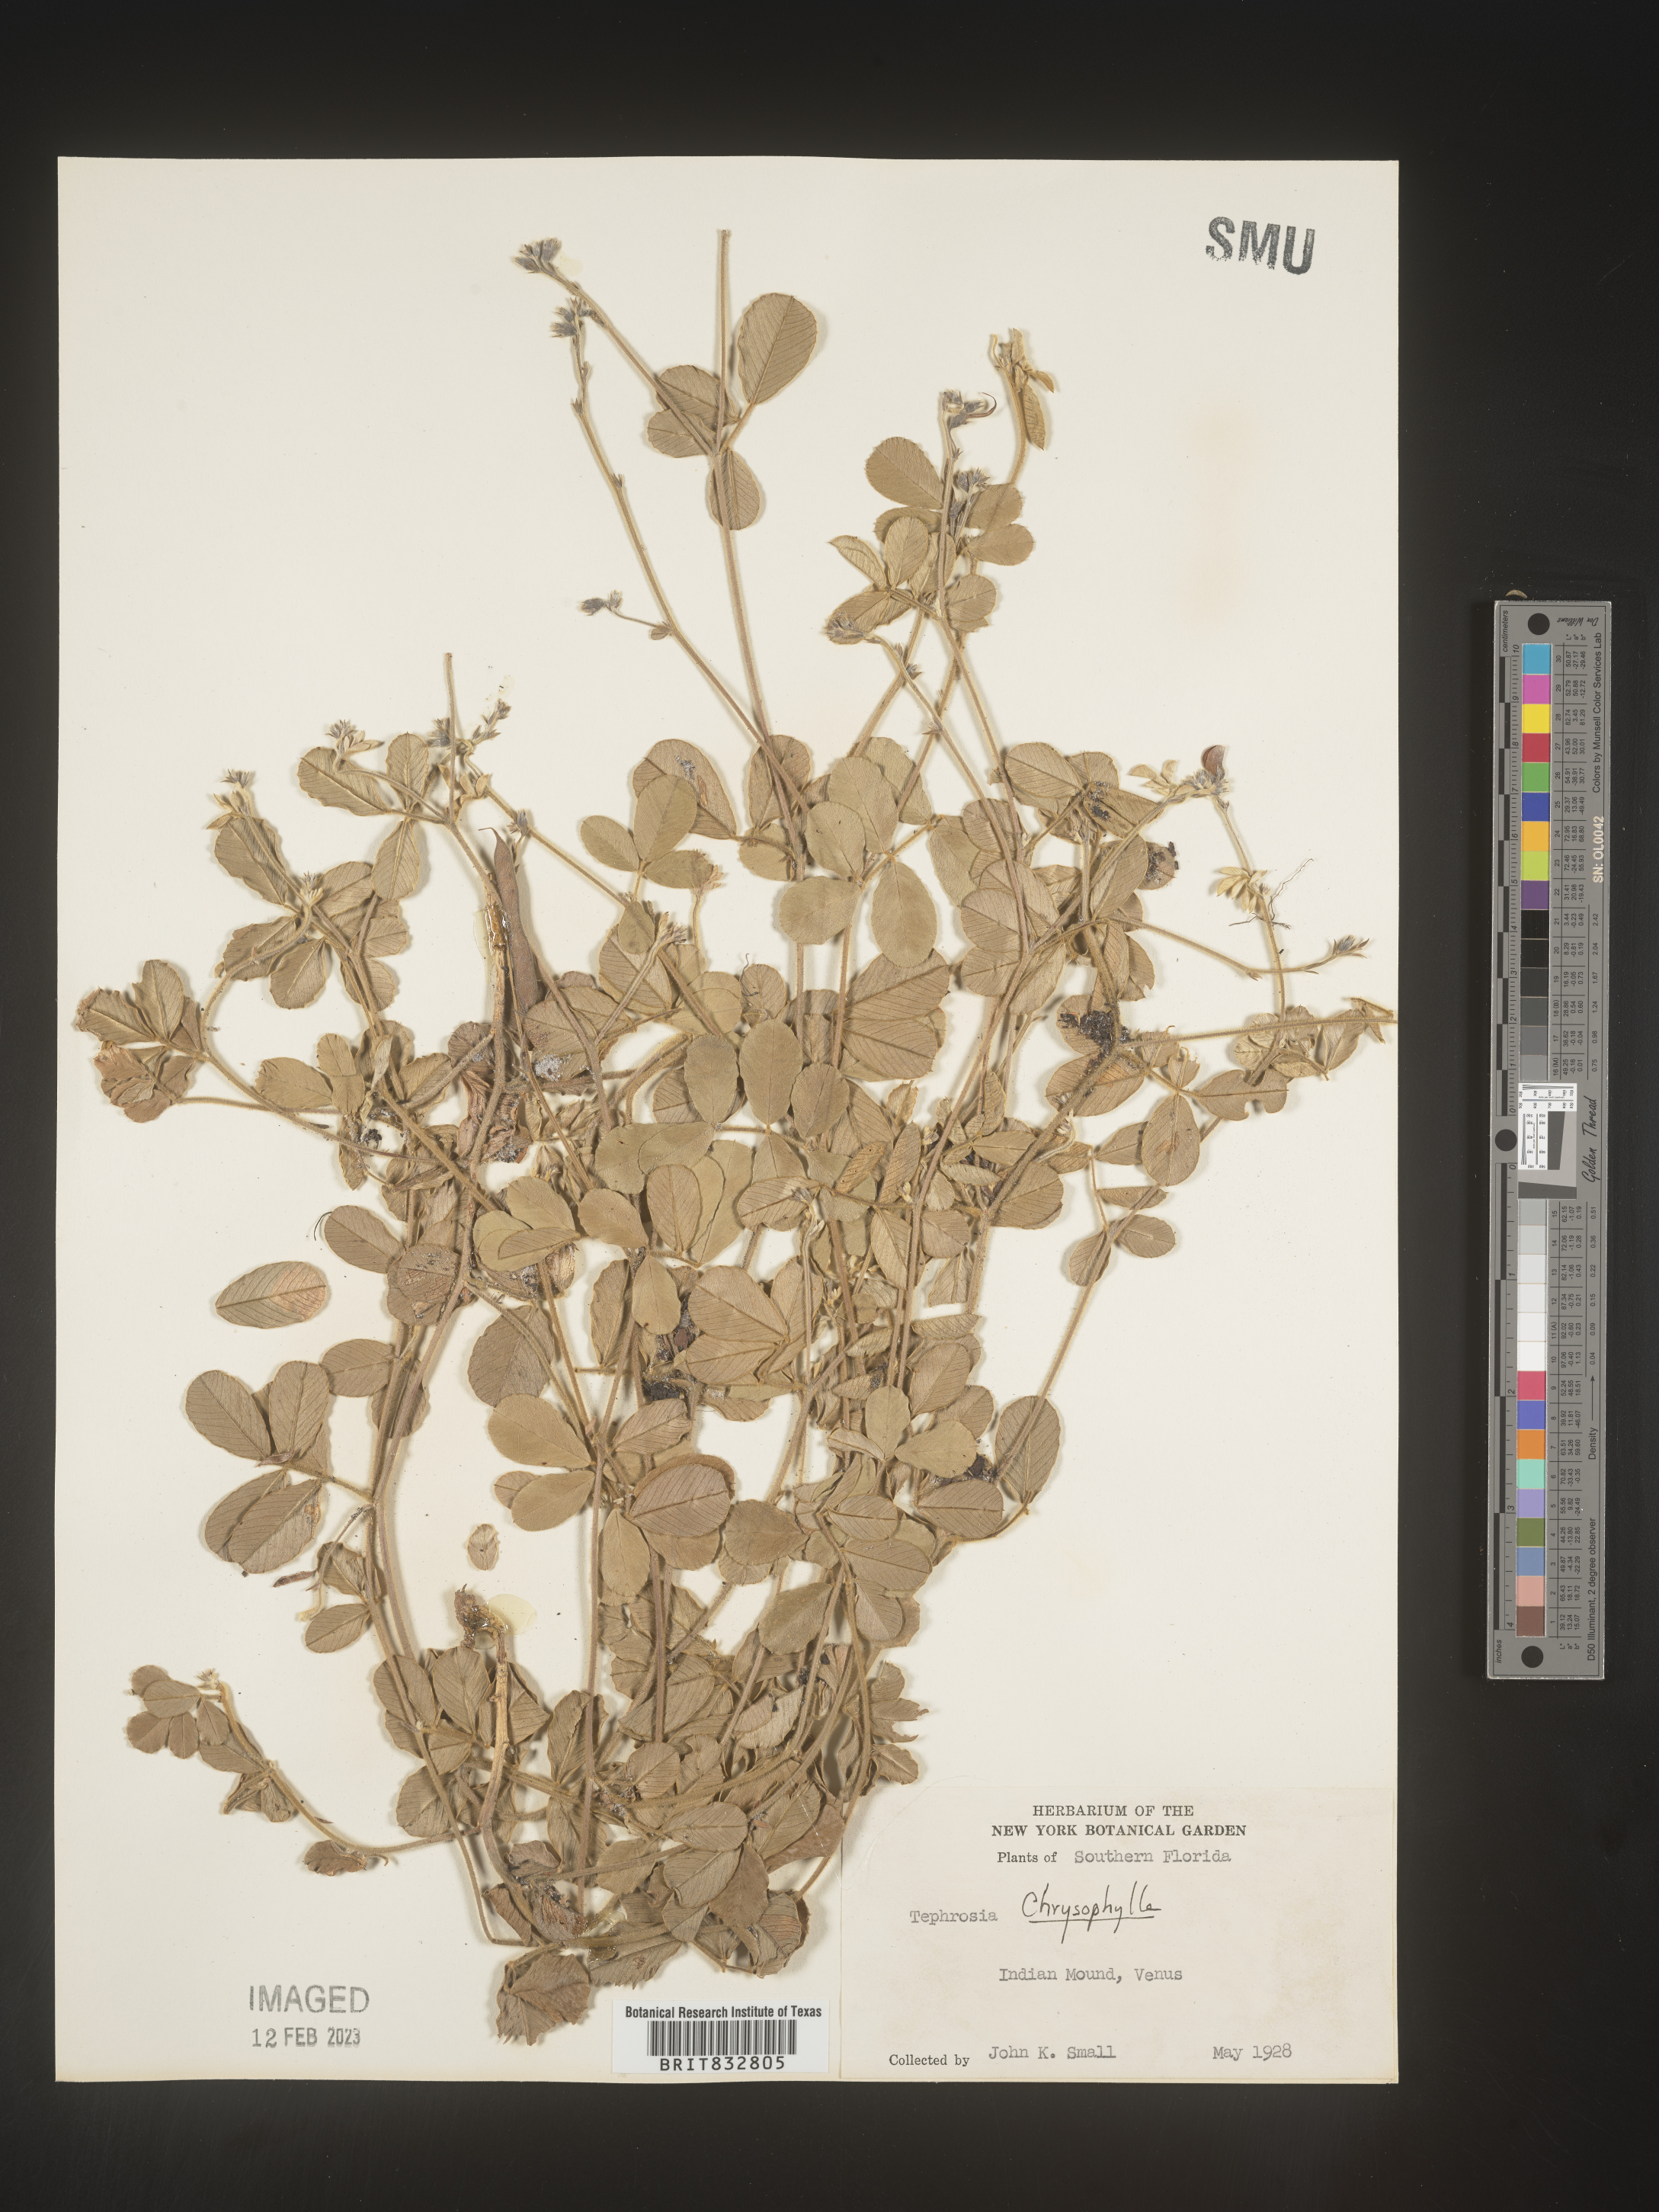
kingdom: Plantae
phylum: Tracheophyta
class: Magnoliopsida
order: Fabales
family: Fabaceae
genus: Tephrosia
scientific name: Tephrosia chrysophylla
